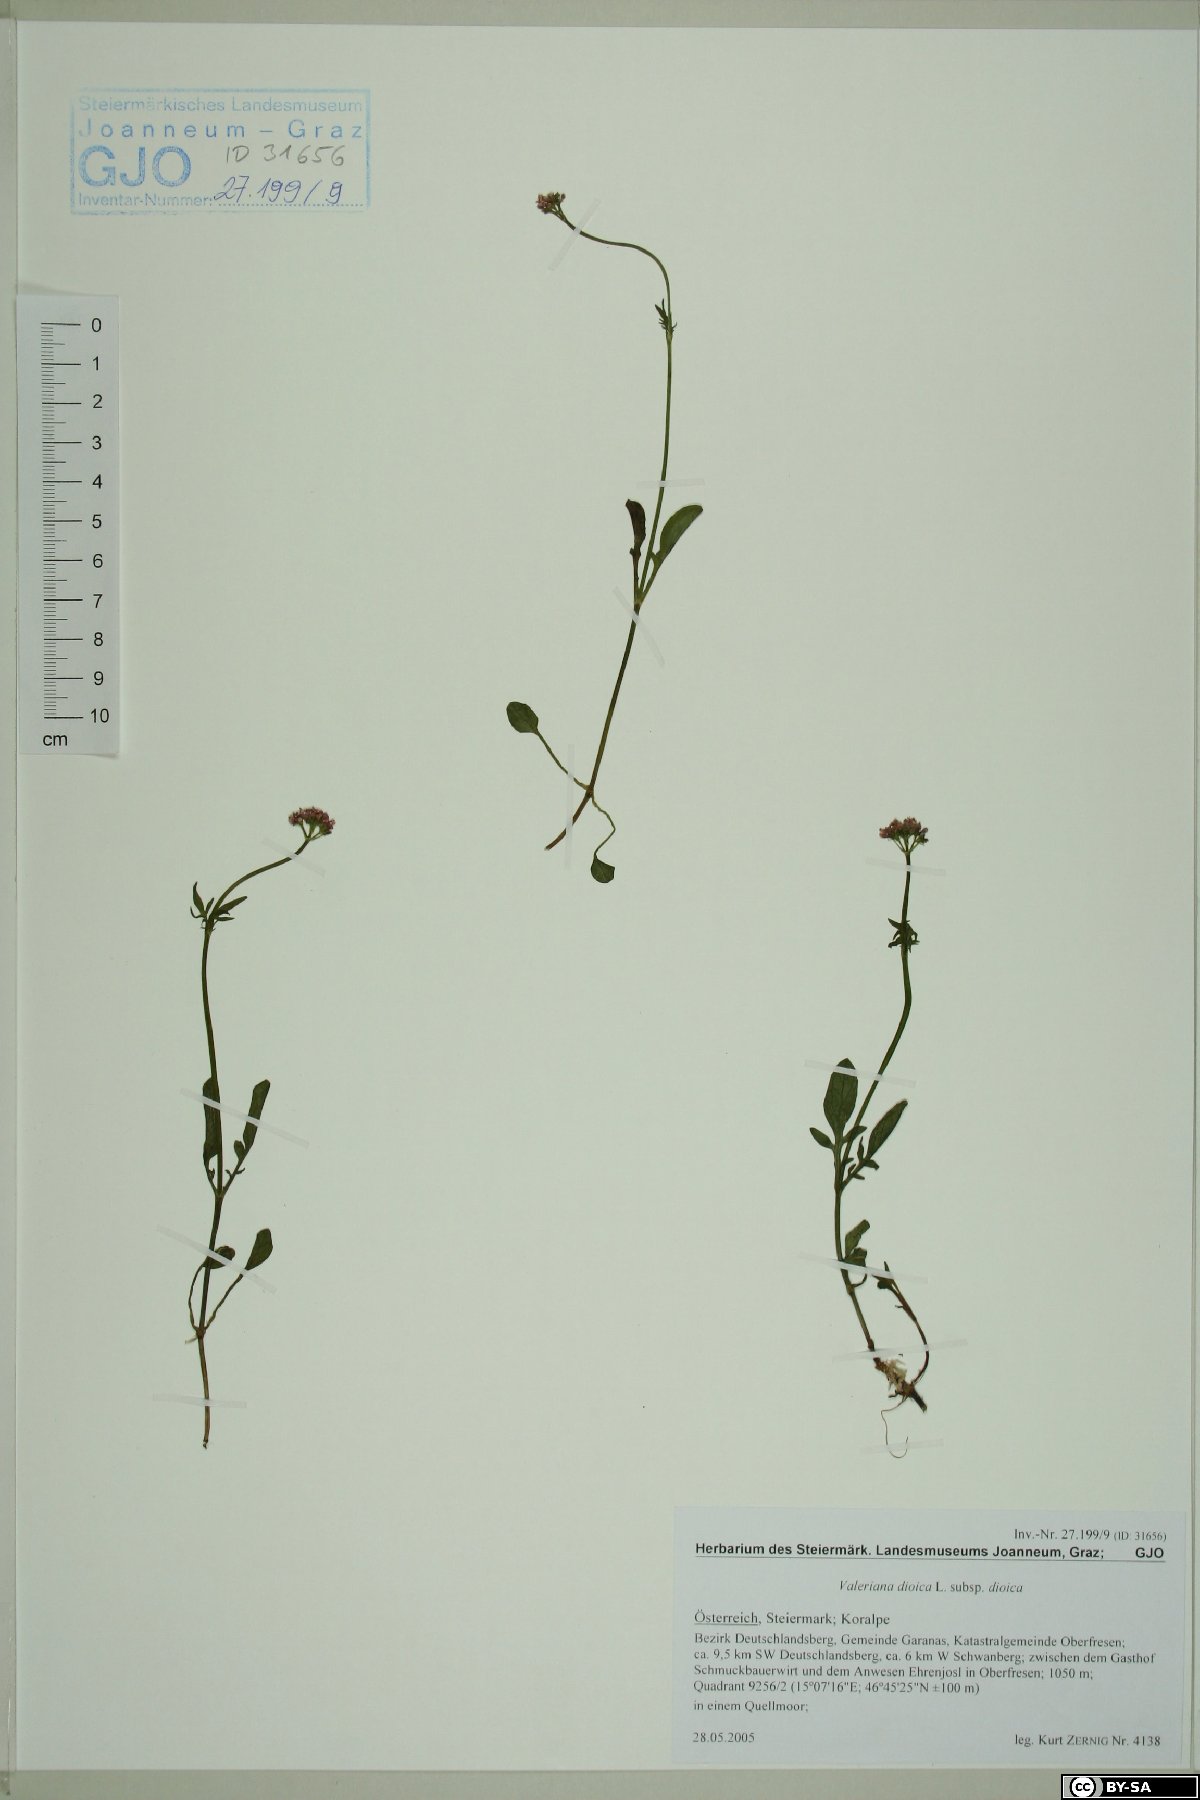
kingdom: Plantae
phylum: Tracheophyta
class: Magnoliopsida
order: Dipsacales
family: Caprifoliaceae
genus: Valeriana
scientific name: Valeriana dioica
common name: Marsh valerian
